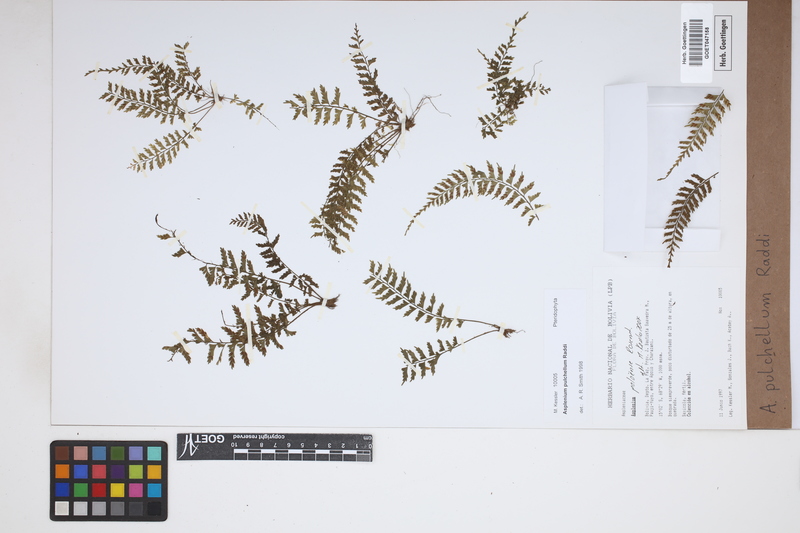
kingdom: Plantae
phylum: Tracheophyta
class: Polypodiopsida
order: Polypodiales
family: Aspleniaceae
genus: Asplenium
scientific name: Asplenium pulchellum
